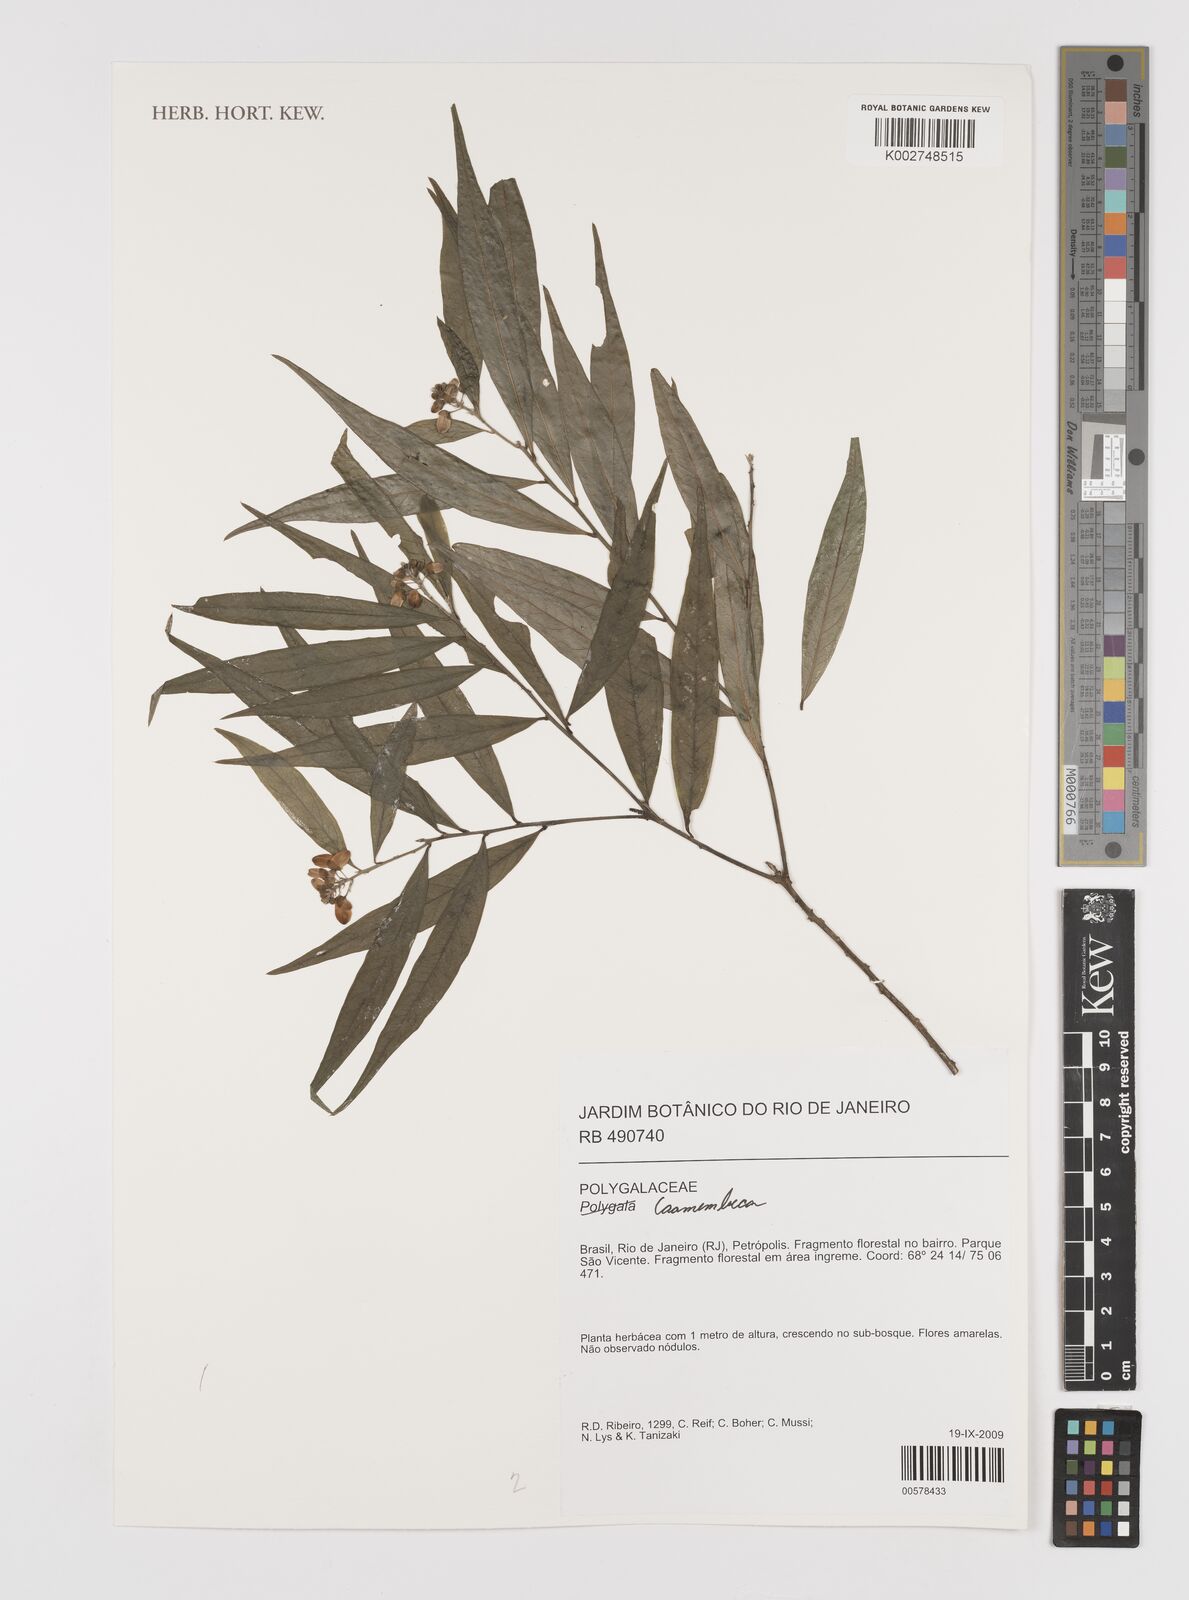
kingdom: Plantae
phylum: Tracheophyta
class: Magnoliopsida
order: Fabales
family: Polygalaceae
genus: Caamembeca
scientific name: Caamembeca
